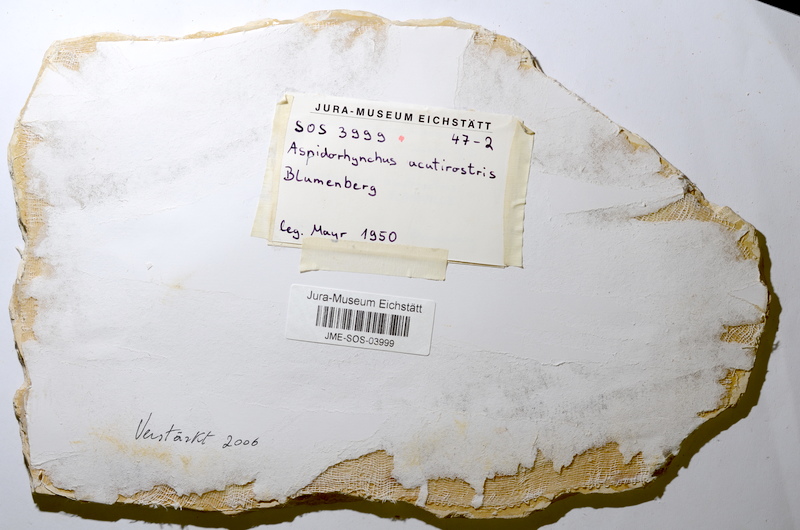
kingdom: Animalia
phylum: Chordata
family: Aspidorhynchidae
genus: Aspidorhynchus
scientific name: Aspidorhynchus acutirostris
